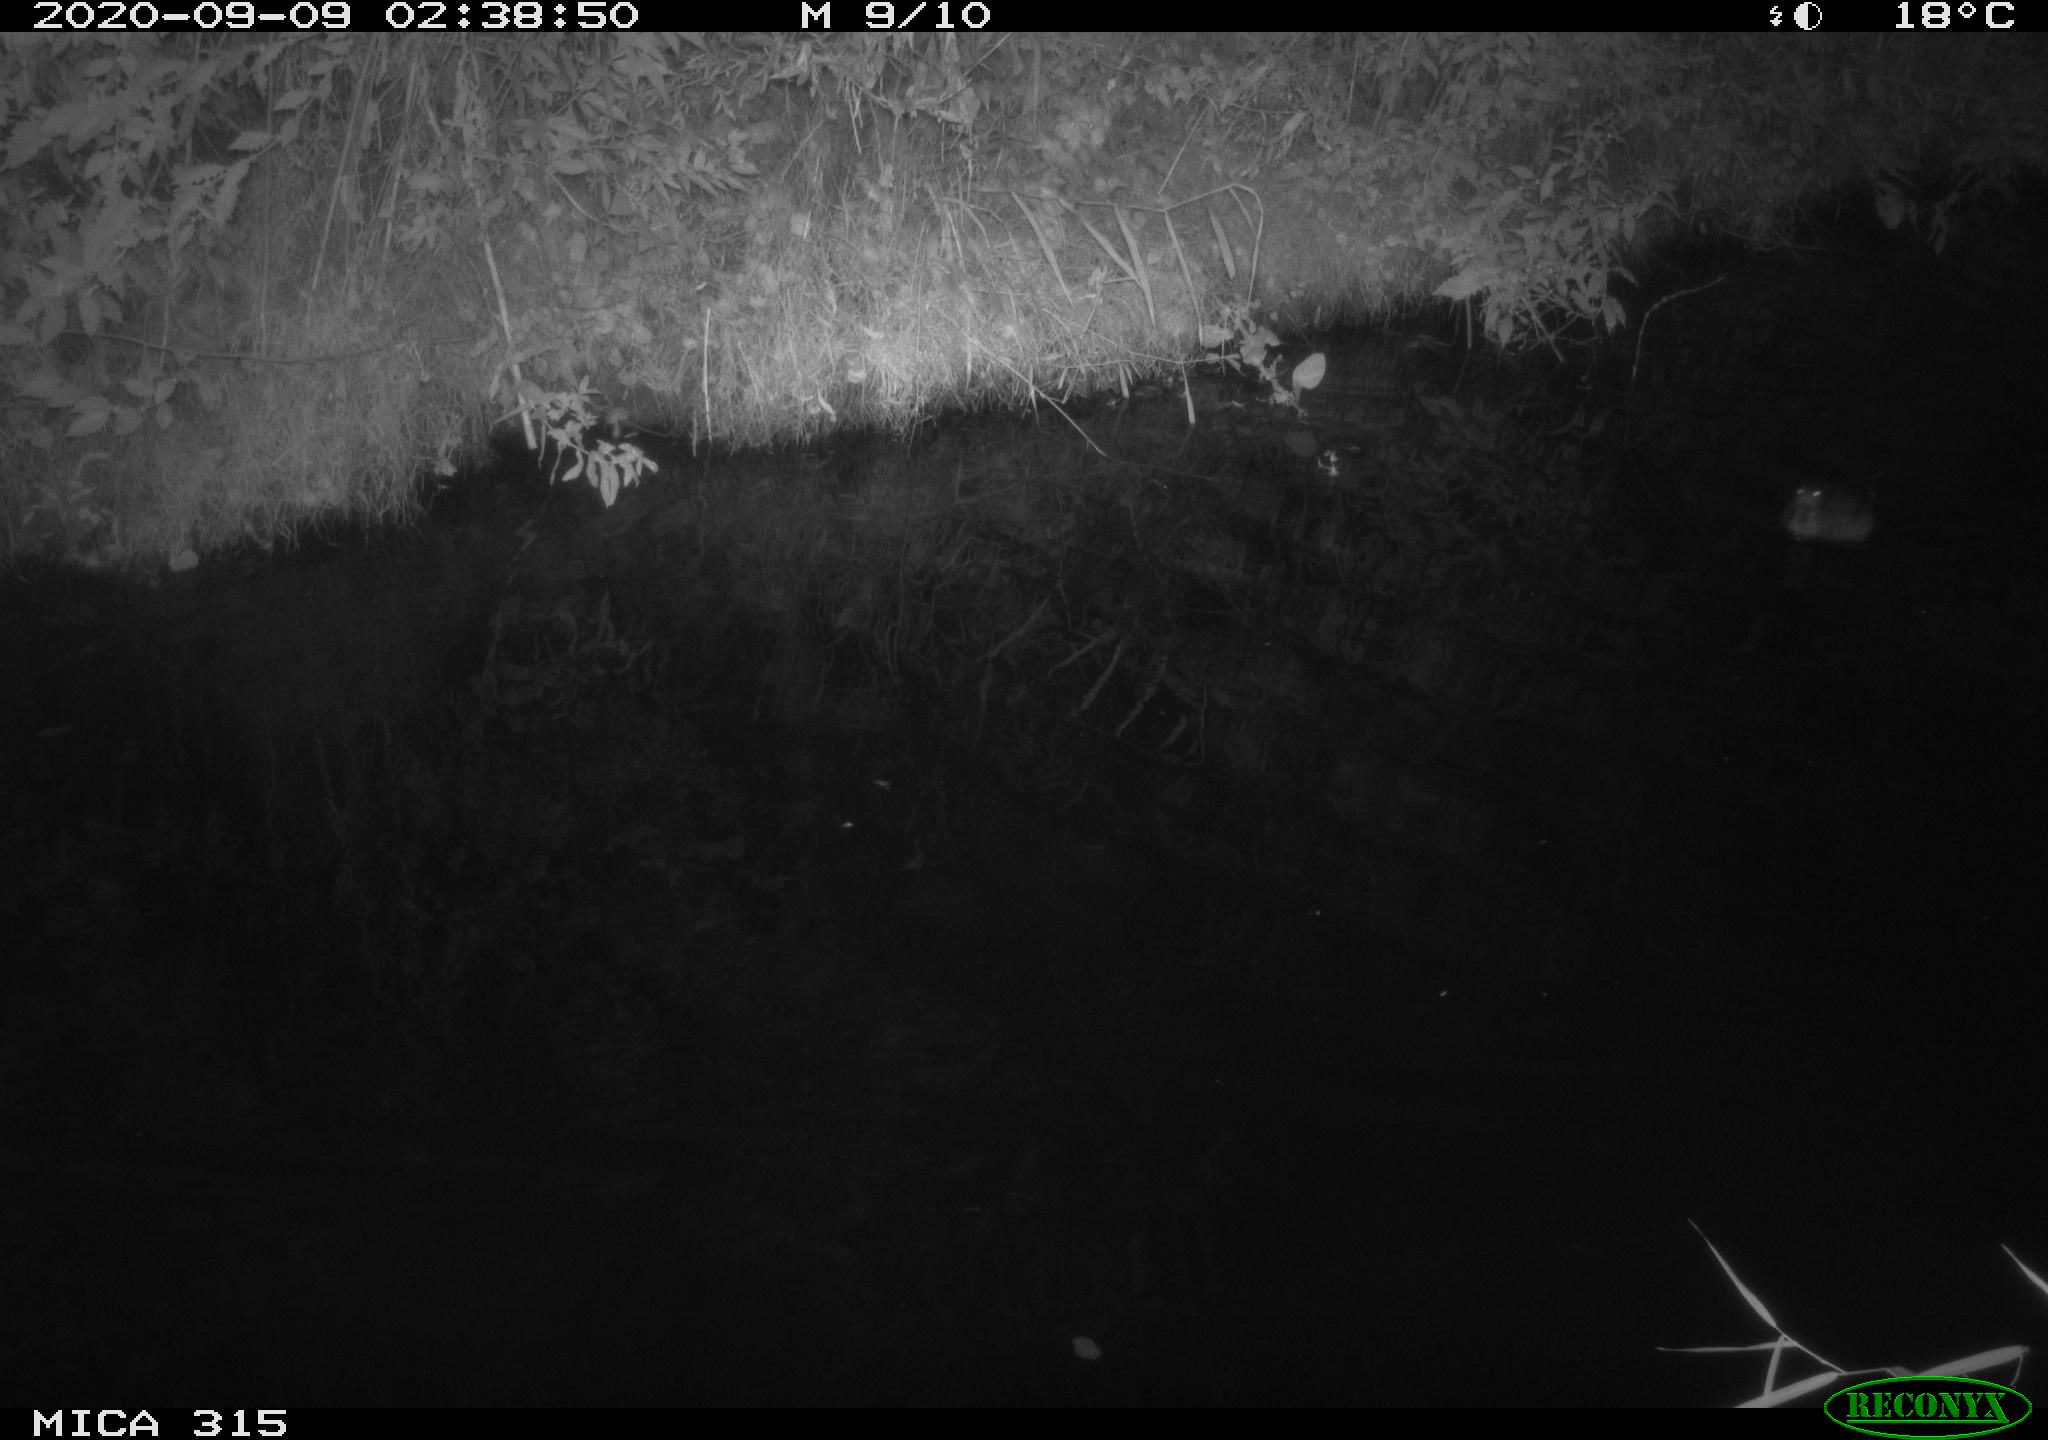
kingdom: Animalia
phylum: Chordata
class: Aves
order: Anseriformes
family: Anatidae
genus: Anas
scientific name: Anas platyrhynchos
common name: Mallard
